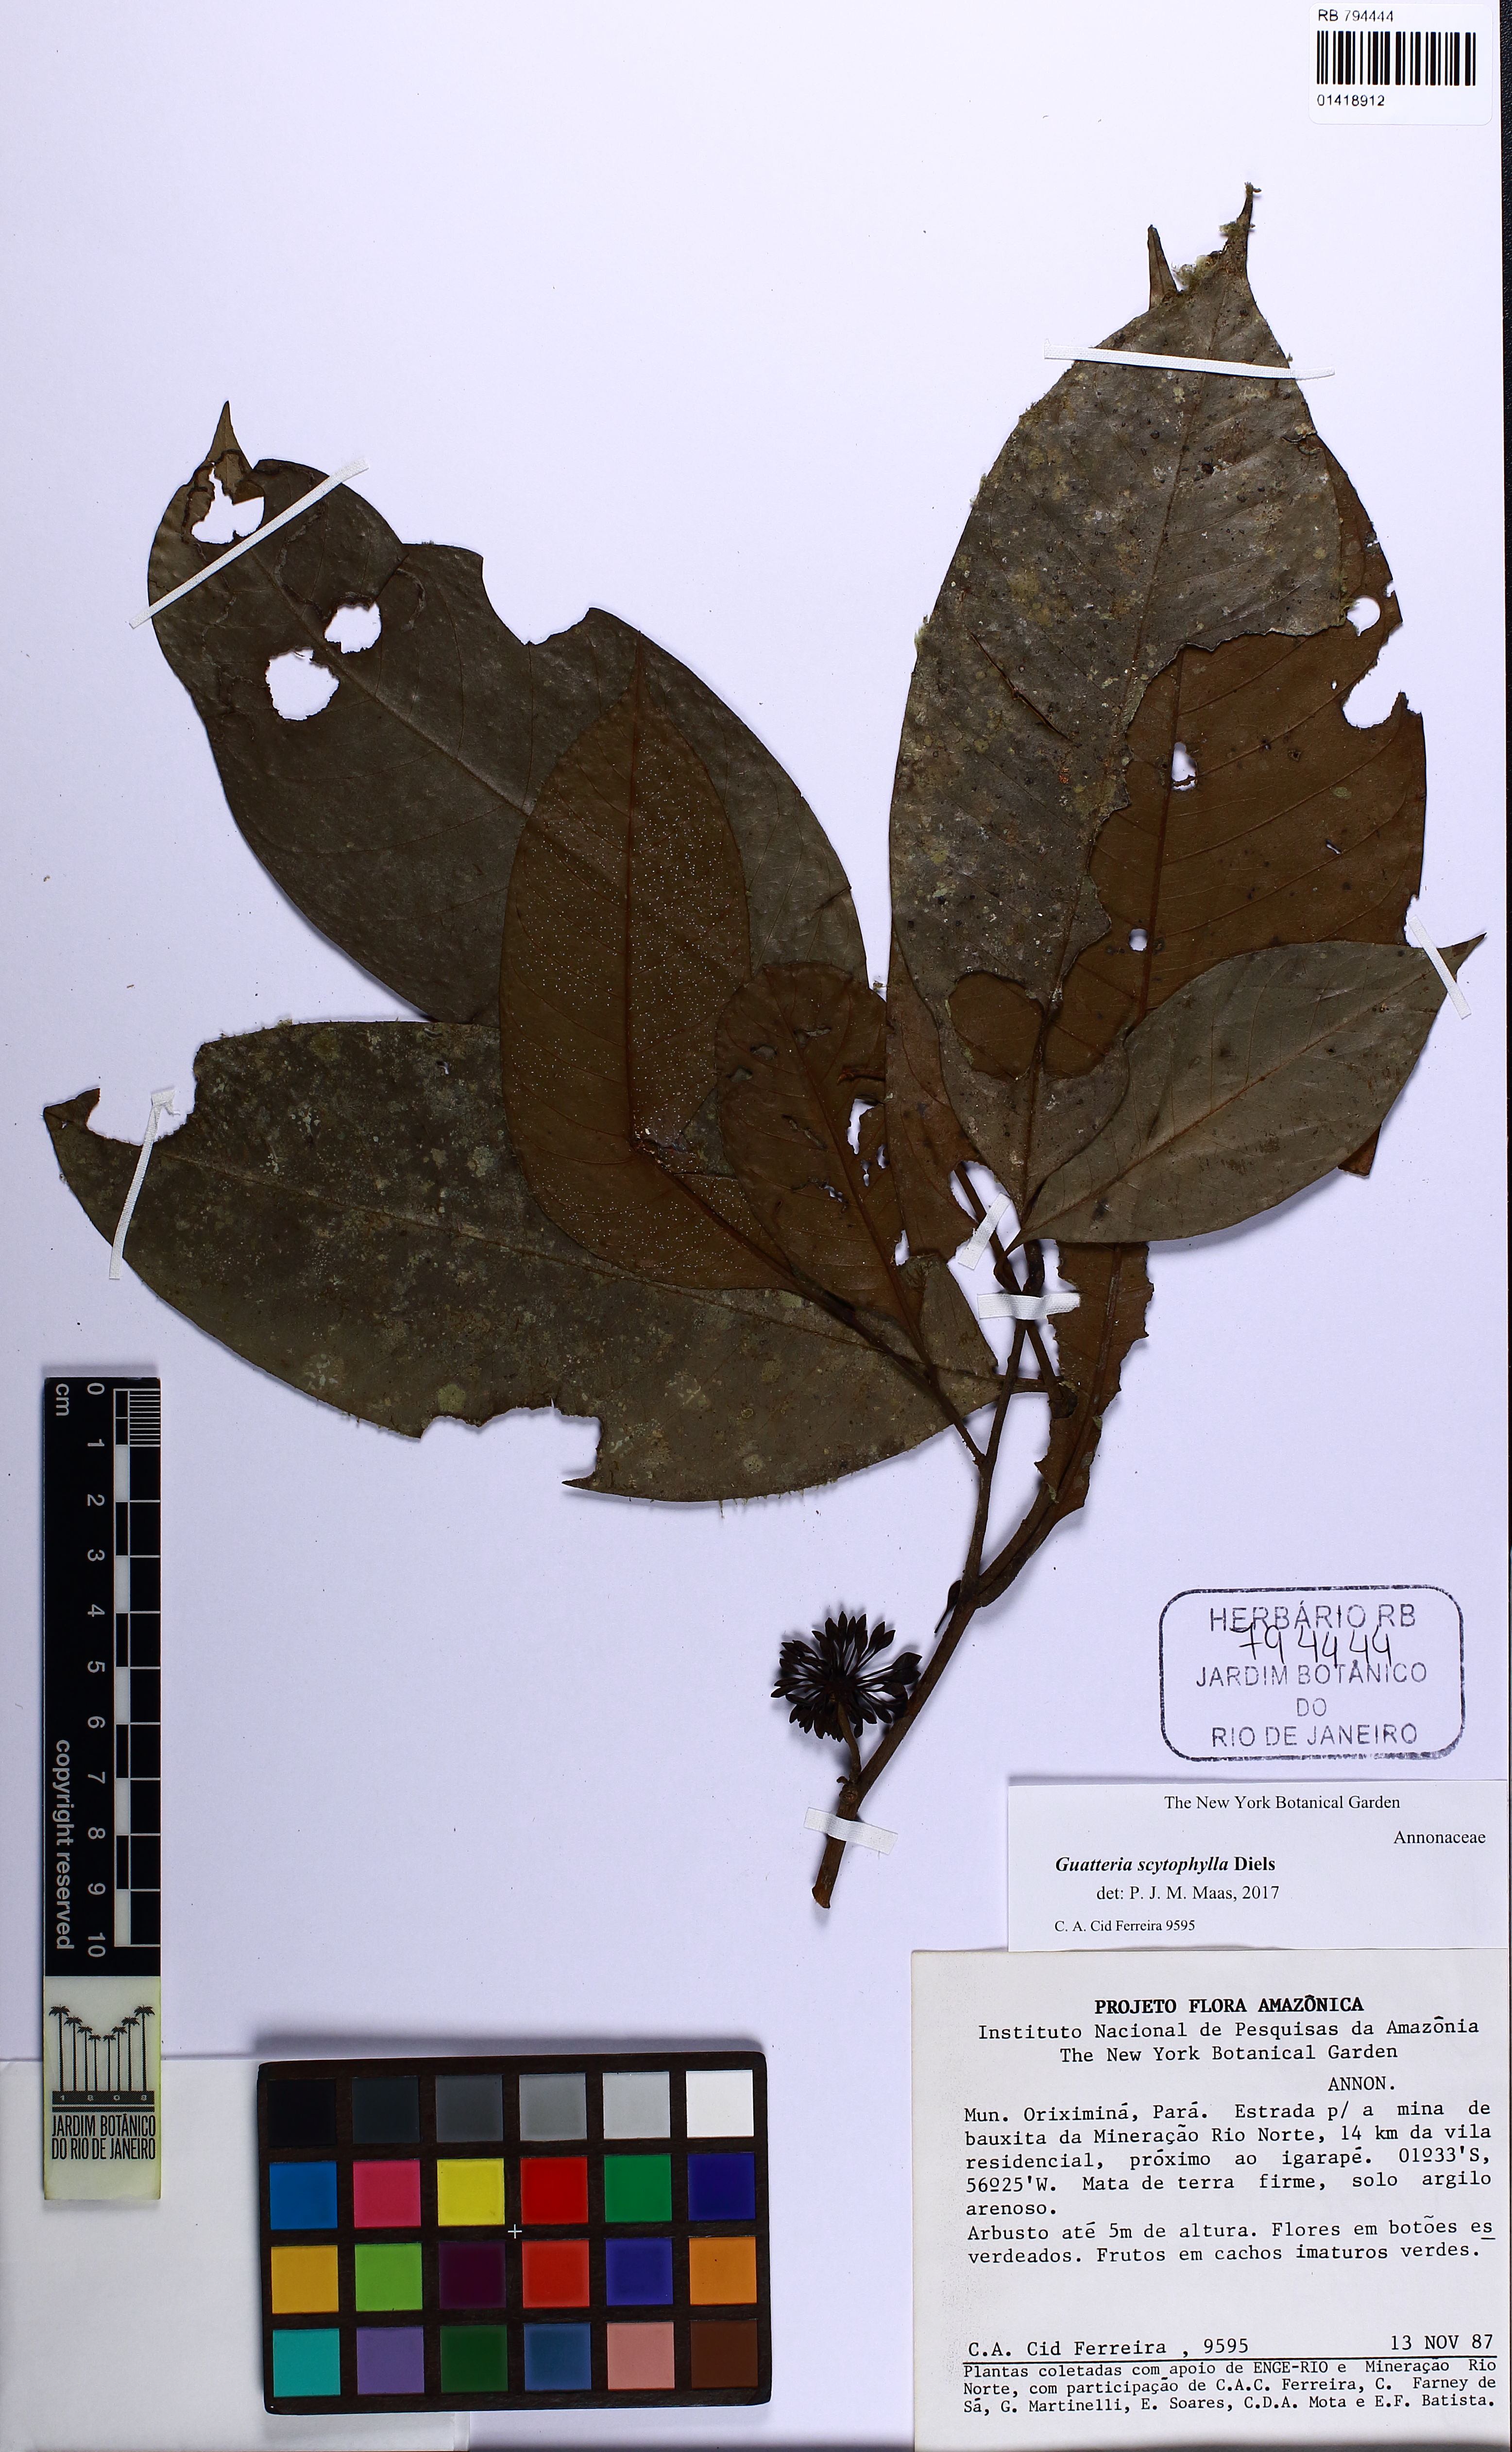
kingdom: Plantae
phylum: Tracheophyta
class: Magnoliopsida
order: Magnoliales
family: Annonaceae
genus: Guatteria
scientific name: Guatteria scytophylla
